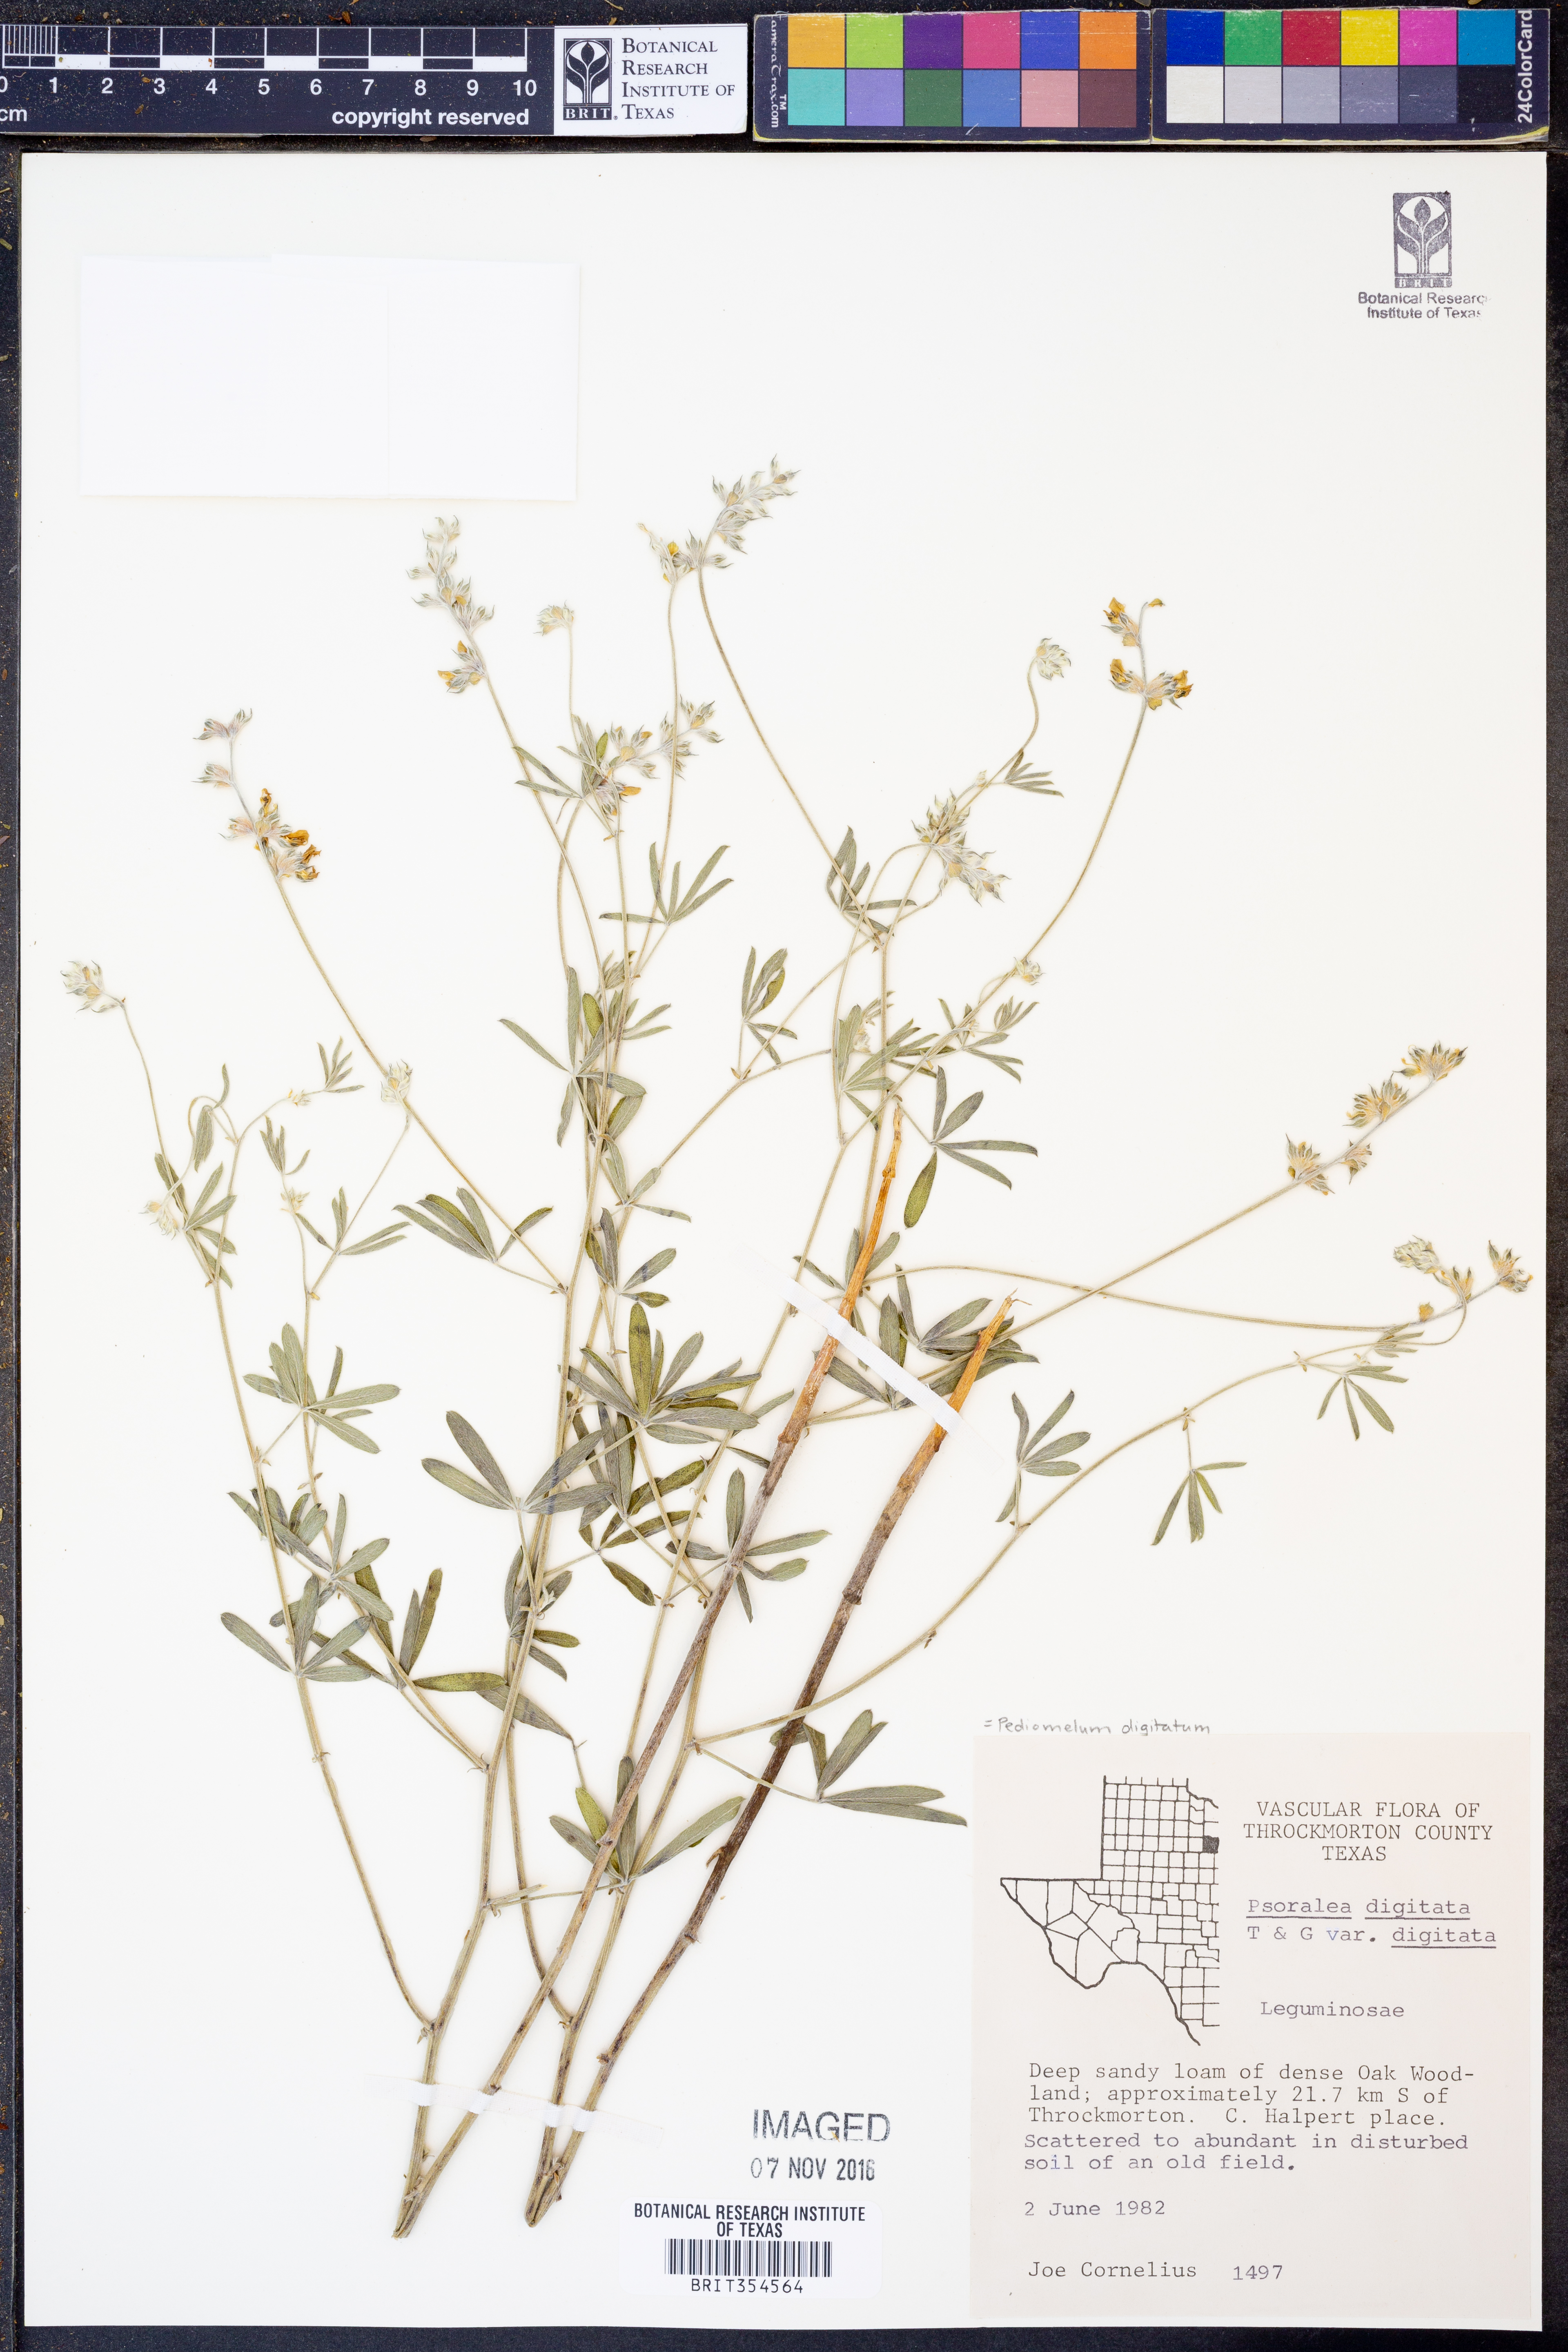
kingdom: Plantae
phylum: Tracheophyta
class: Magnoliopsida
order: Fabales
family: Fabaceae
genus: Pediomelum
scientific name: Pediomelum digitatum
